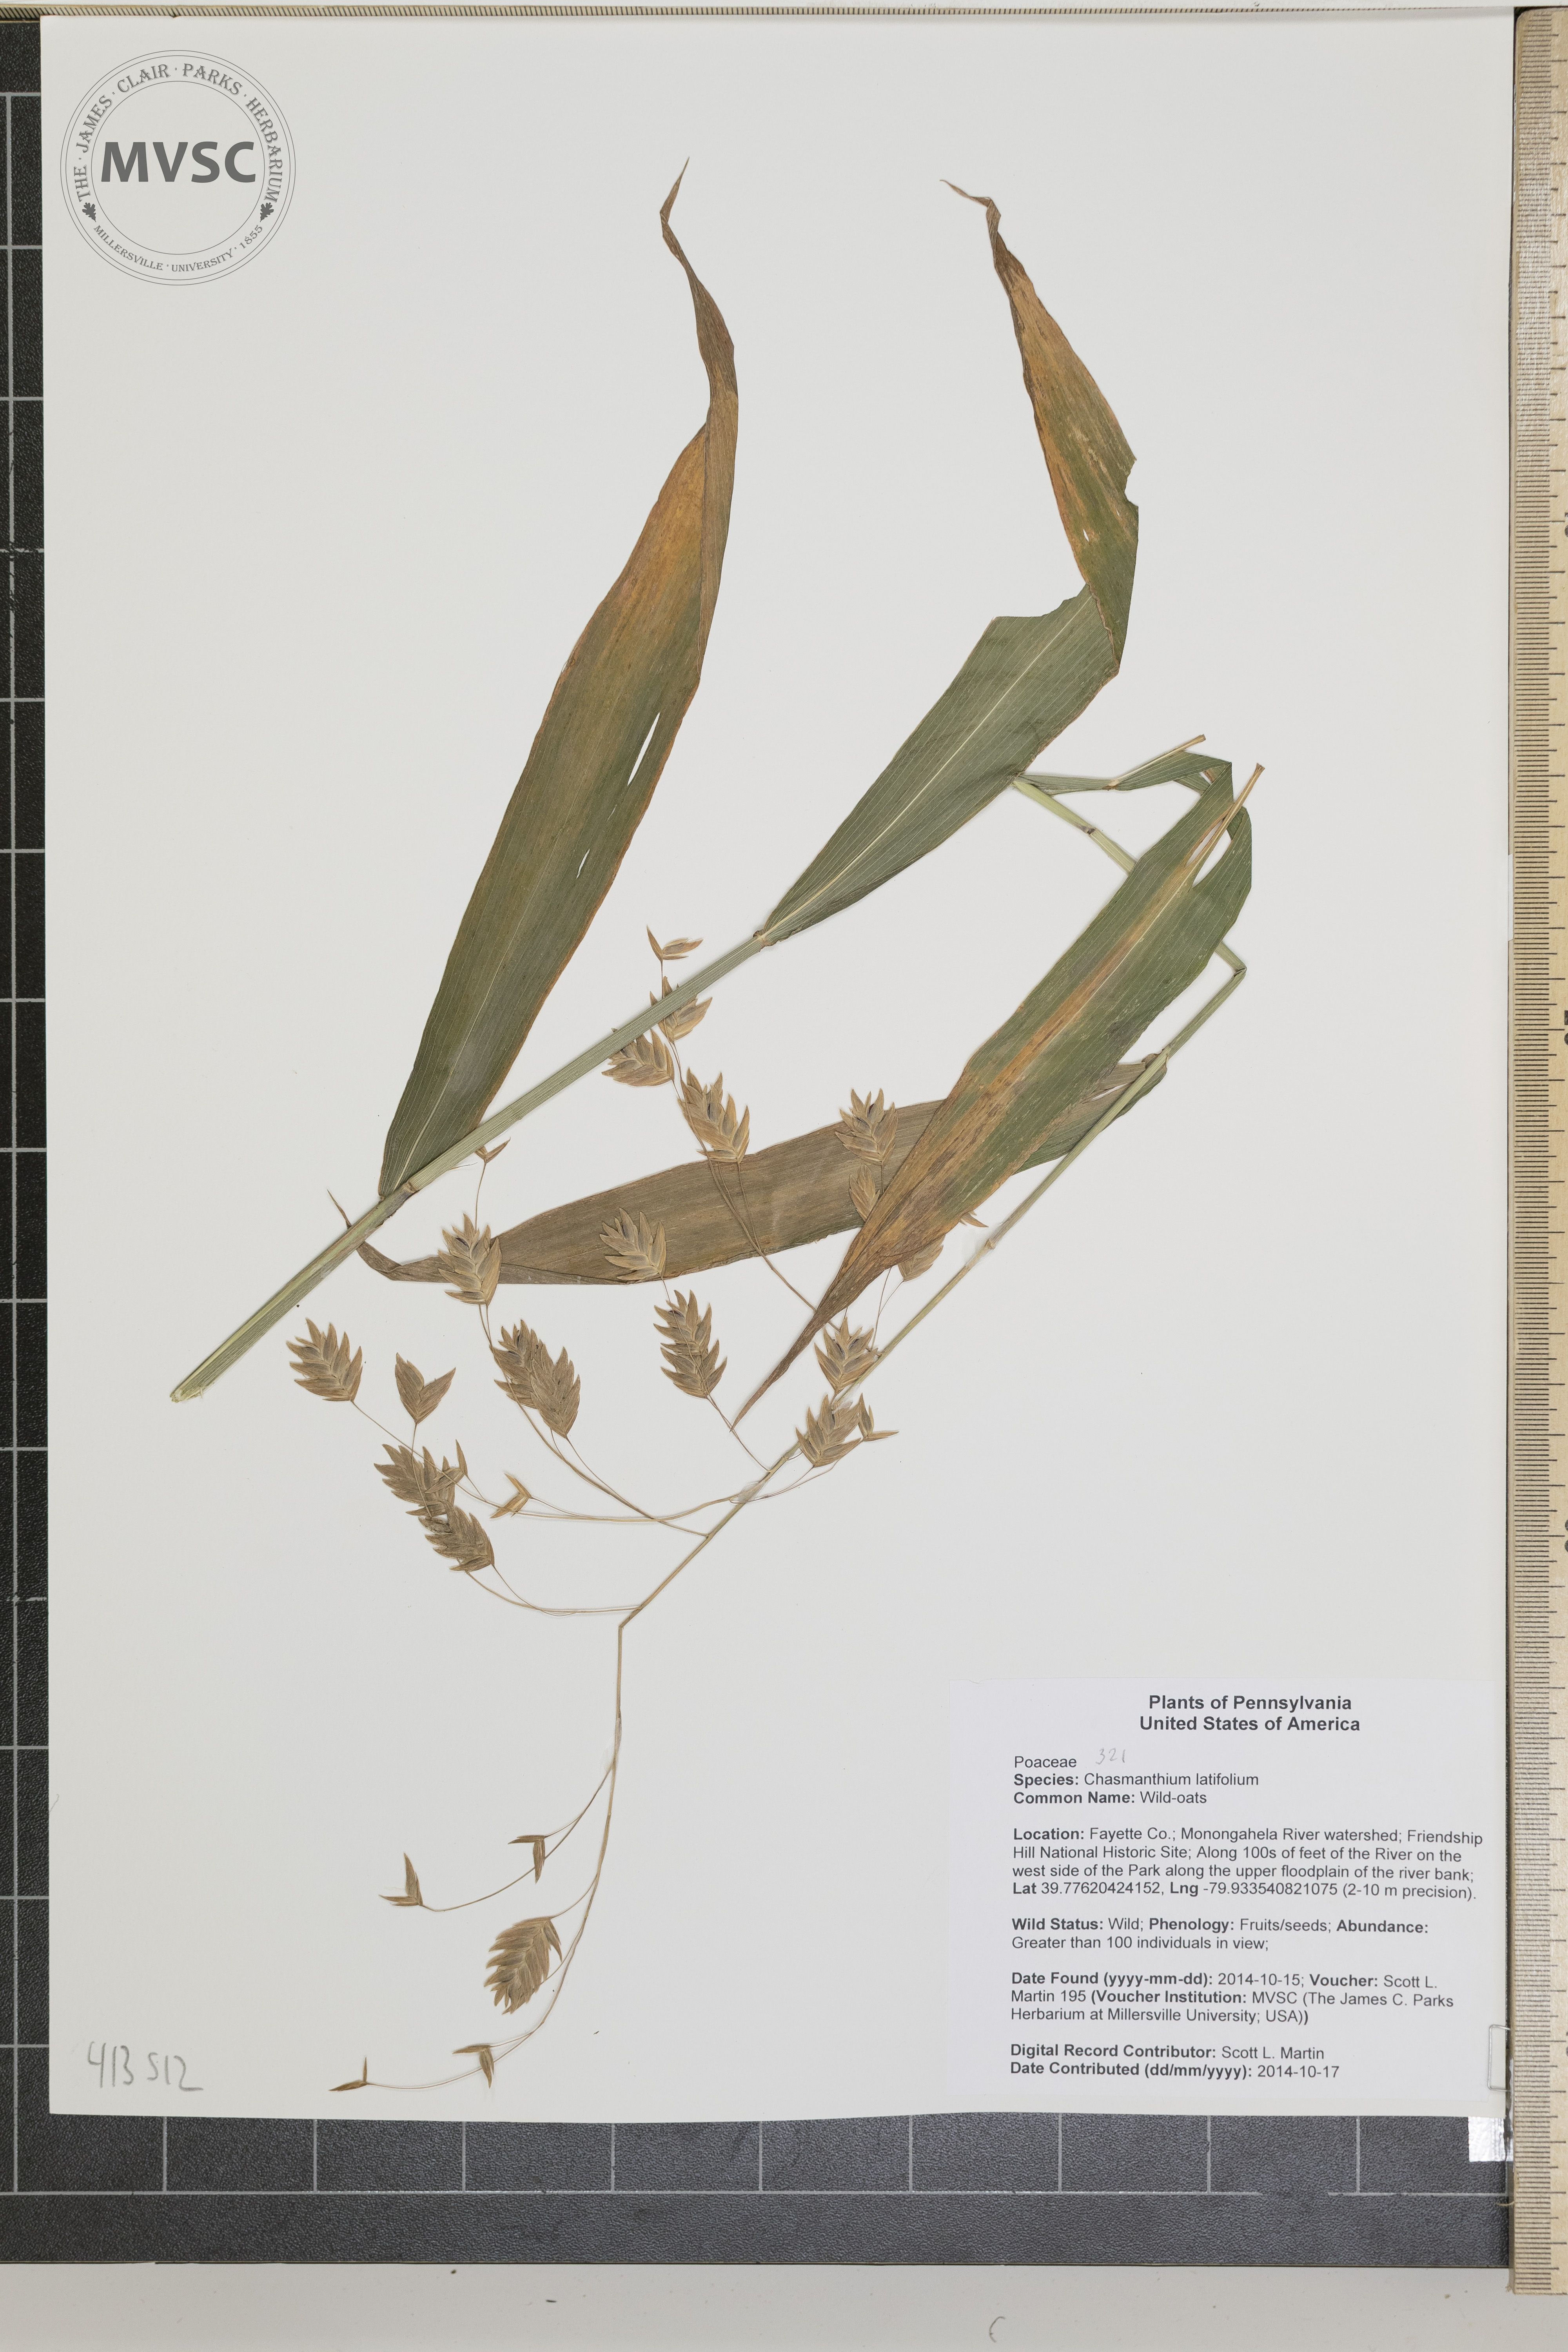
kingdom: Plantae
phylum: Tracheophyta
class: Liliopsida
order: Poales
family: Poaceae
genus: Chasmanthium
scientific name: Chasmanthium latifolium
